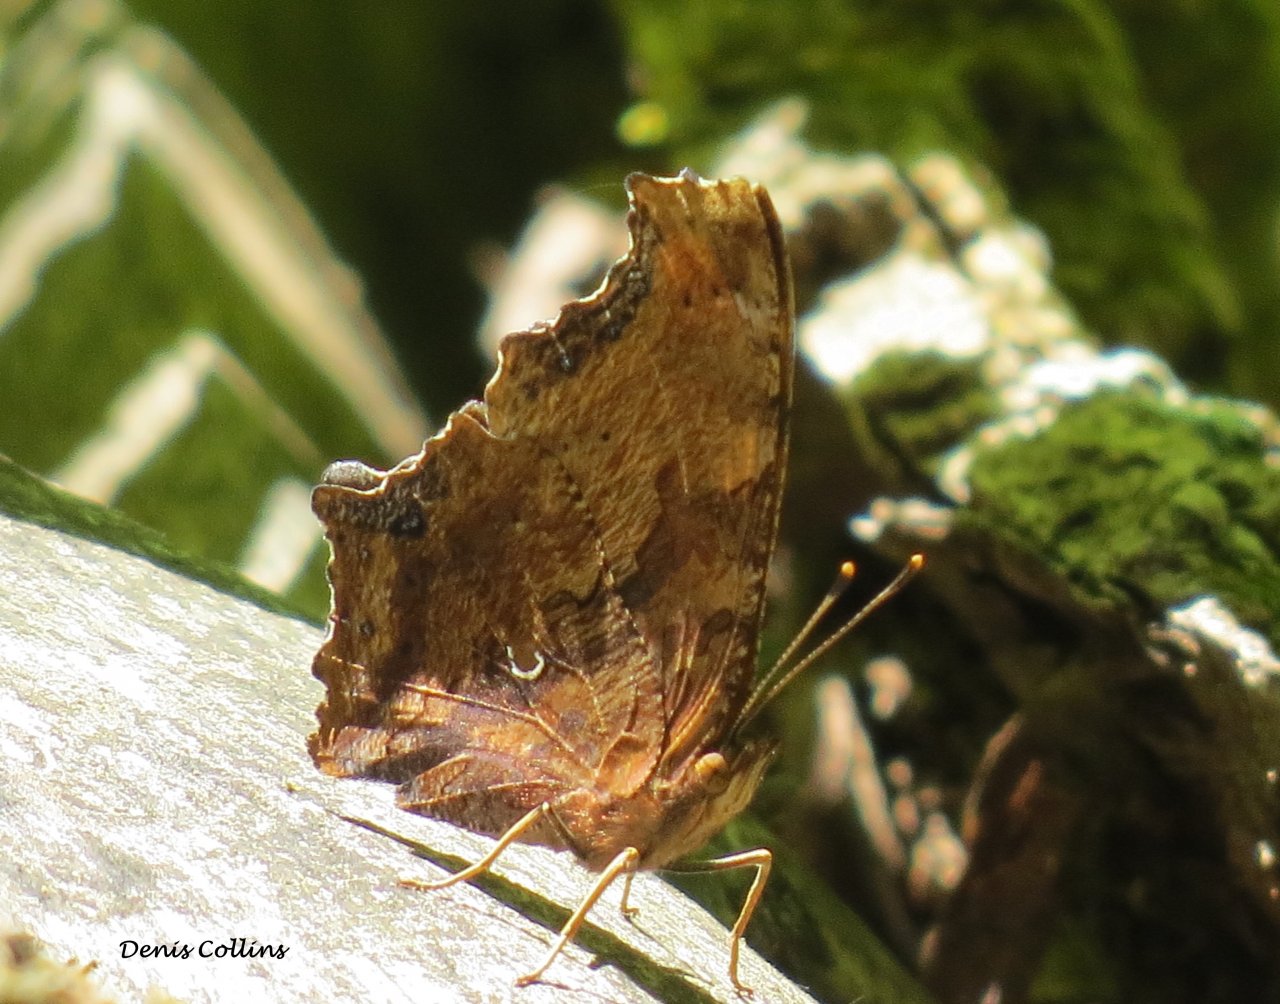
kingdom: Animalia
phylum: Arthropoda
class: Insecta
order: Lepidoptera
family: Nymphalidae
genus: Polygonia
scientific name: Polygonia comma
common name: Eastern Comma
